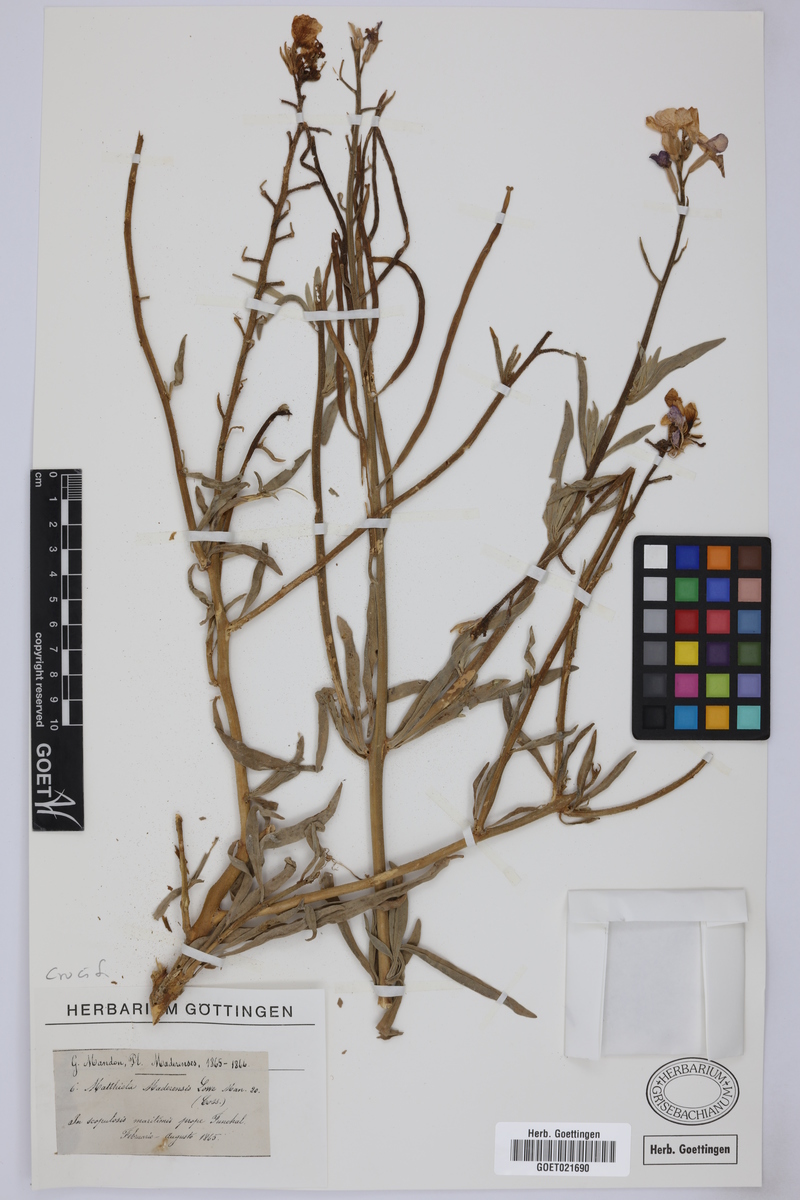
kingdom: Plantae
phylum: Tracheophyta
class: Magnoliopsida
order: Brassicales
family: Brassicaceae
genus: Matthiola
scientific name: Matthiola maderensis
